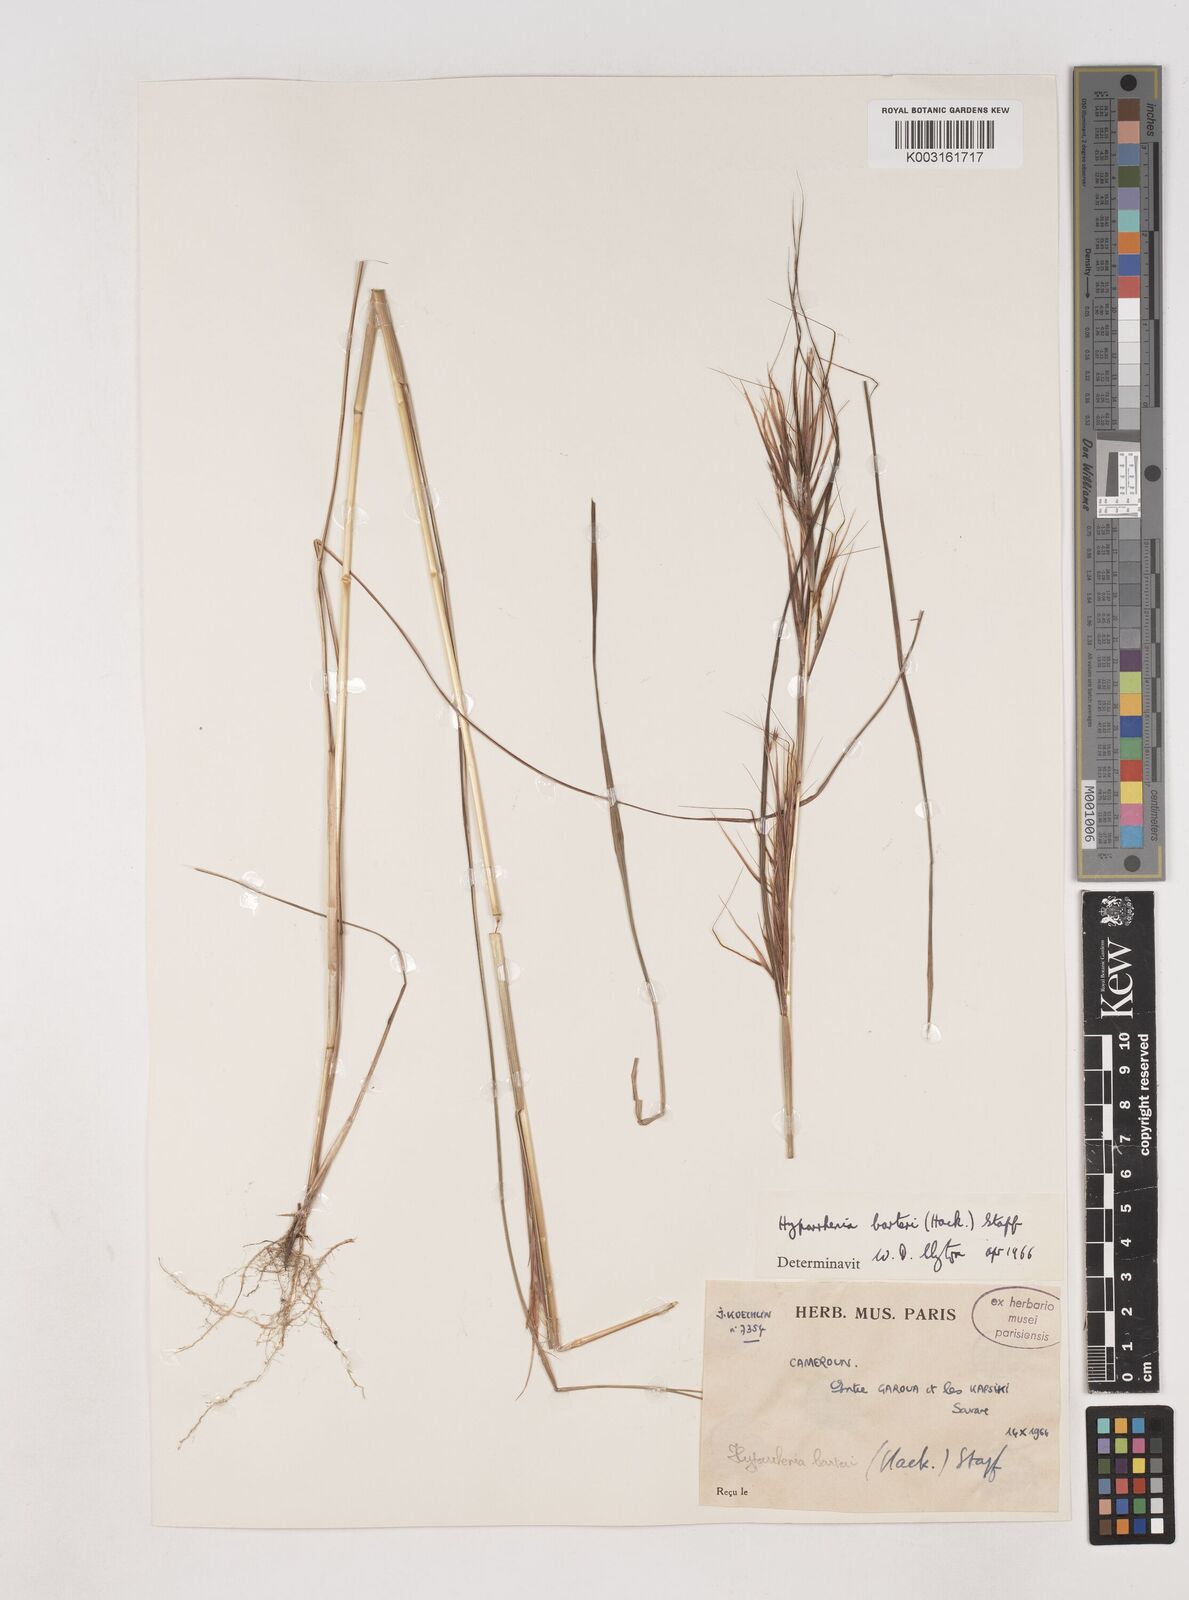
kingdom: Plantae
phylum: Tracheophyta
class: Liliopsida
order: Poales
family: Poaceae
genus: Hyparrhenia
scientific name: Hyparrhenia barteri
